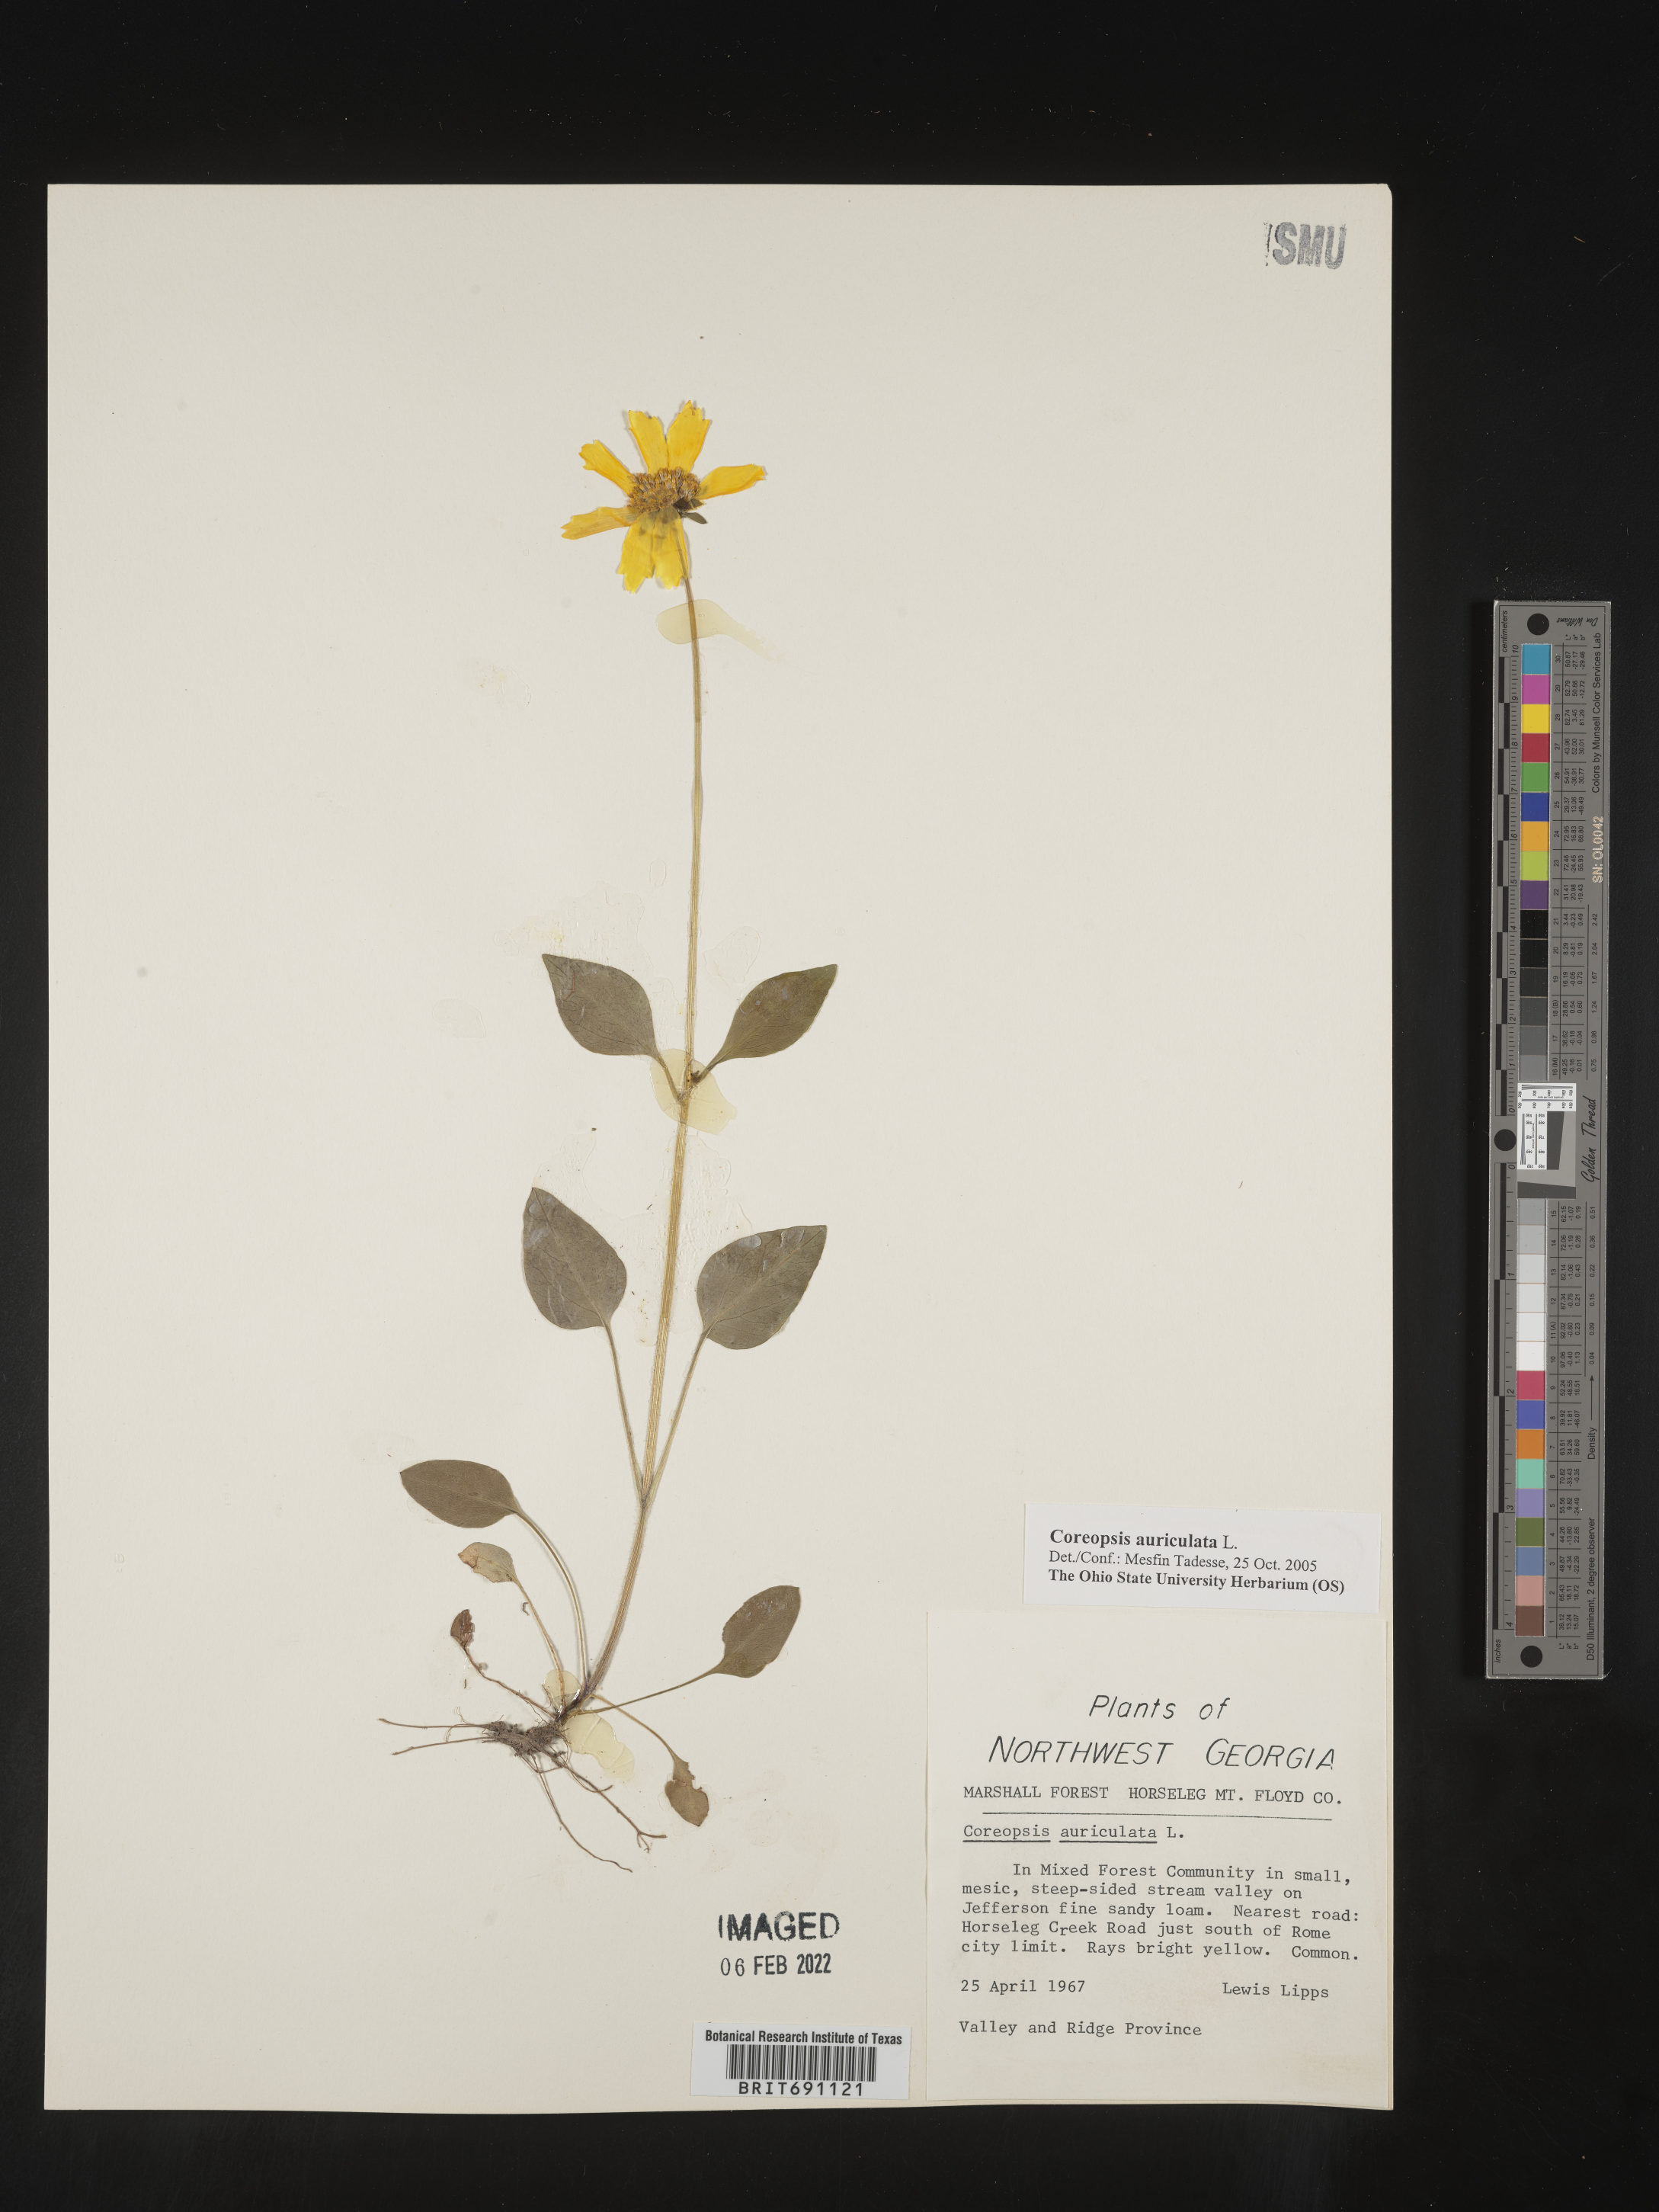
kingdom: Plantae
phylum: Tracheophyta
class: Magnoliopsida
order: Asterales
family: Asteraceae
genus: Coreopsis
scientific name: Coreopsis auriculata
